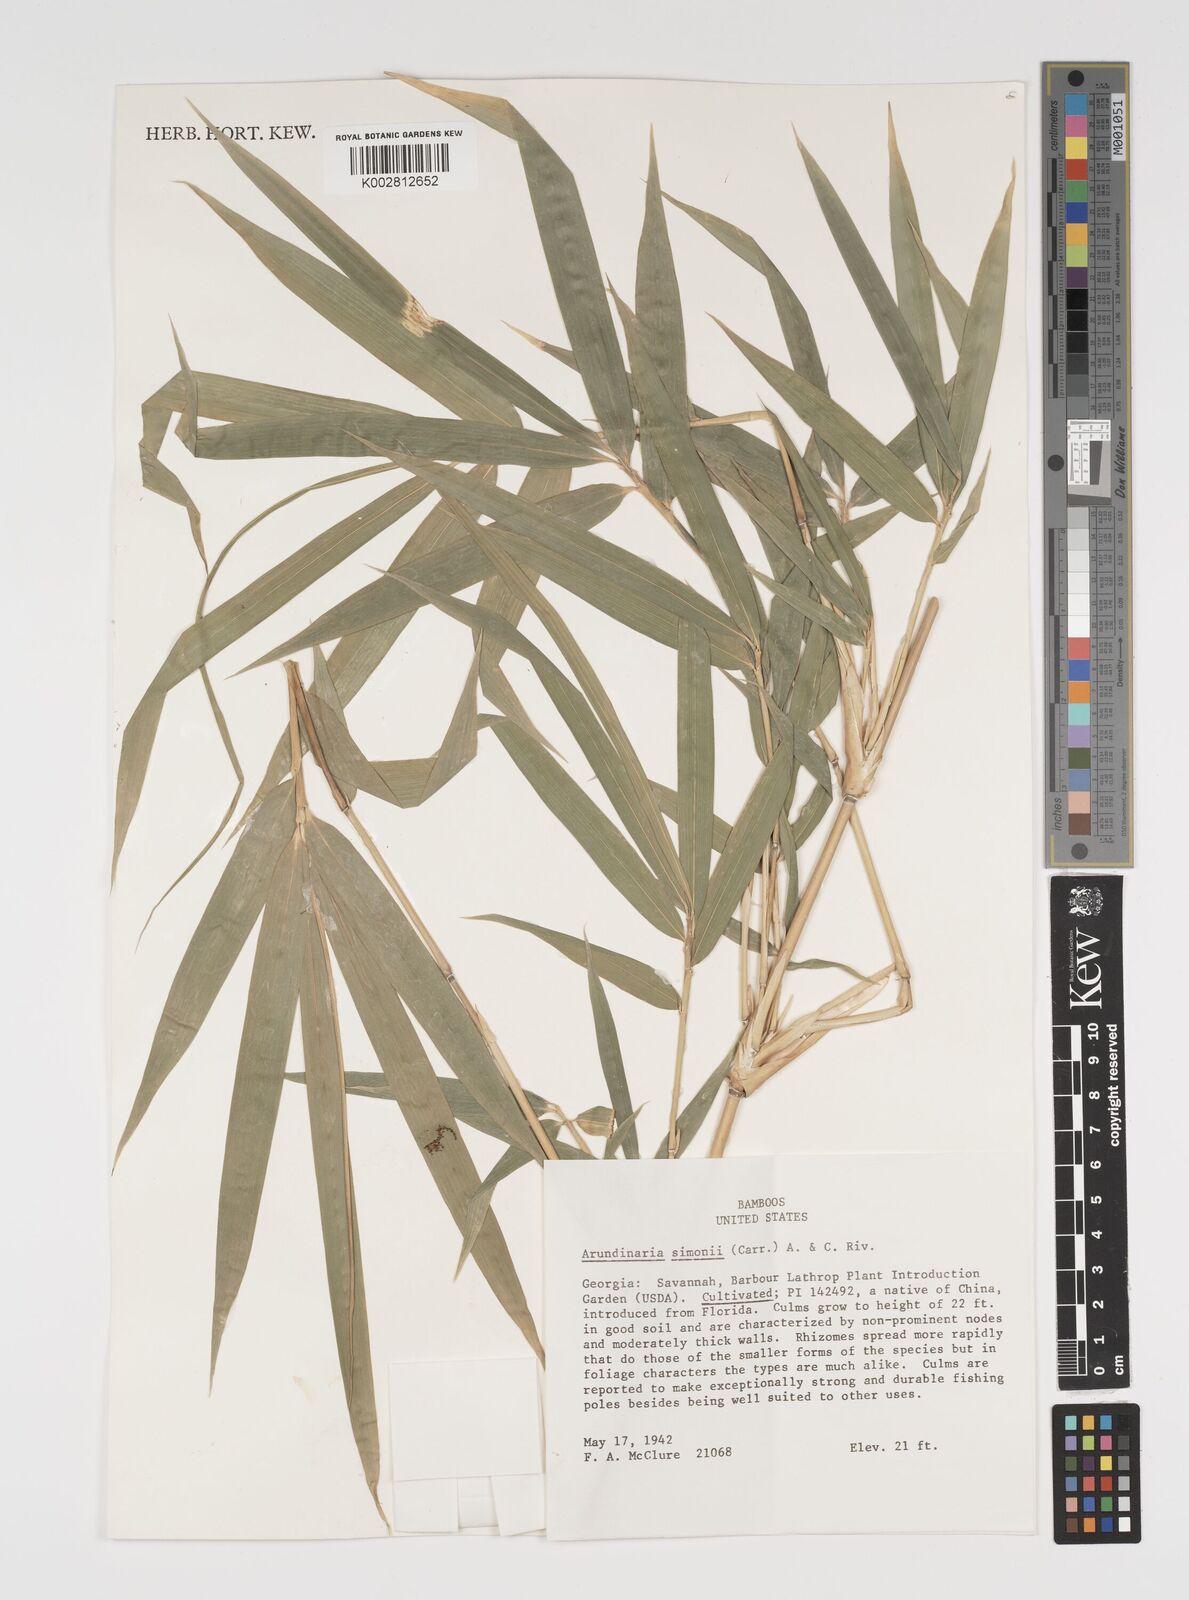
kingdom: Plantae
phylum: Tracheophyta
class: Liliopsida
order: Poales
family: Poaceae
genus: Pleioblastus
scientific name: Pleioblastus simonii
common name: Simon bamboo
